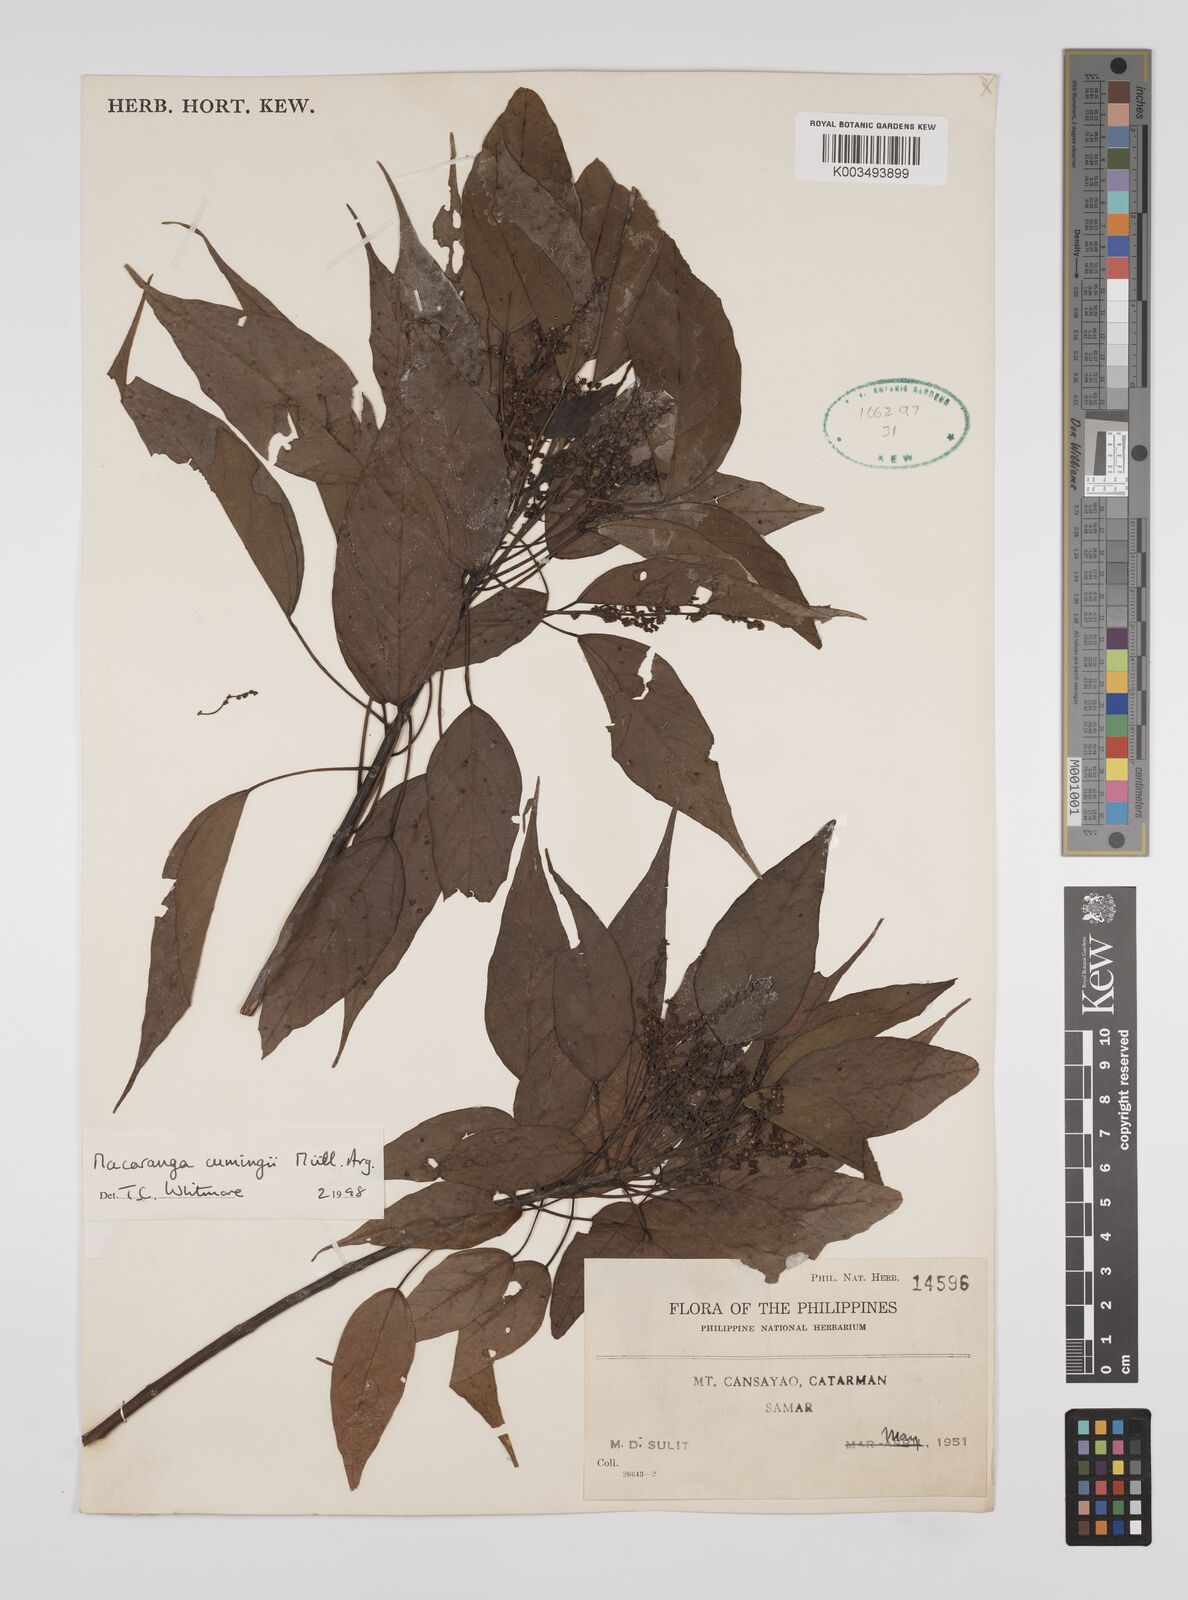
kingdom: Plantae
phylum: Tracheophyta
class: Magnoliopsida
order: Malpighiales
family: Euphorbiaceae
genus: Macaranga
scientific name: Macaranga cumingii
